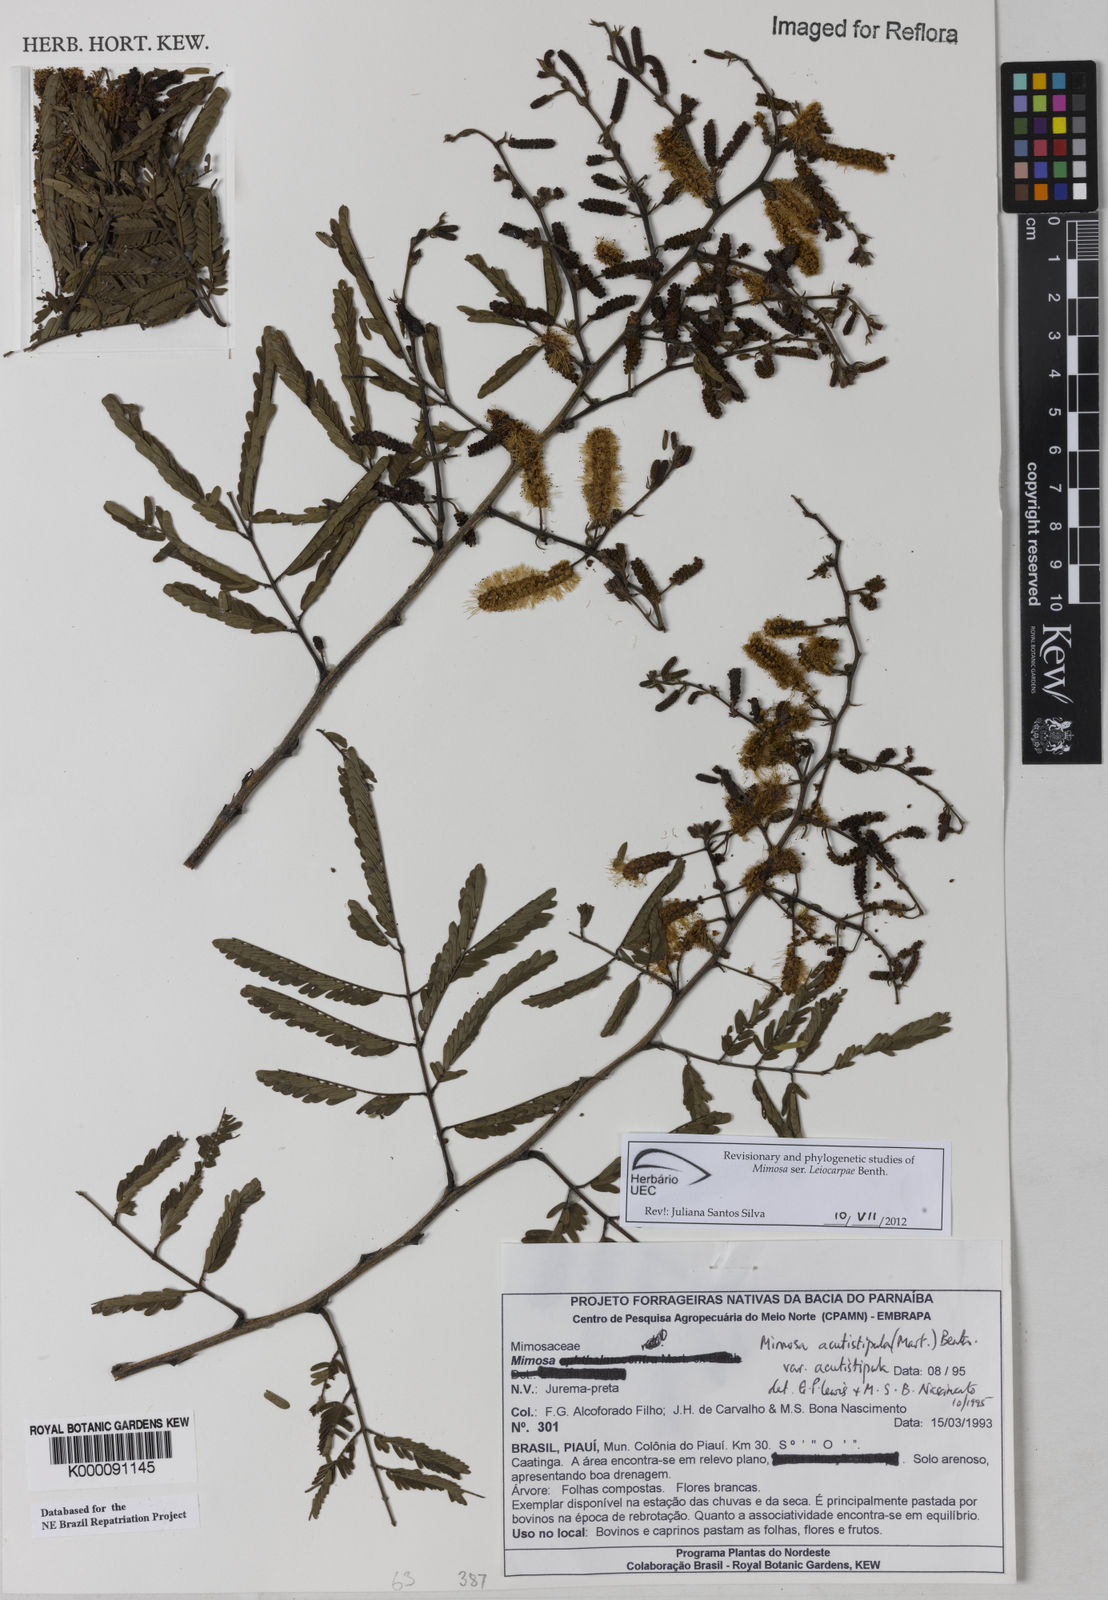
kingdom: Plantae
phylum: Tracheophyta
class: Magnoliopsida
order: Fabales
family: Fabaceae
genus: Mimosa
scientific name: Mimosa acutistipula
